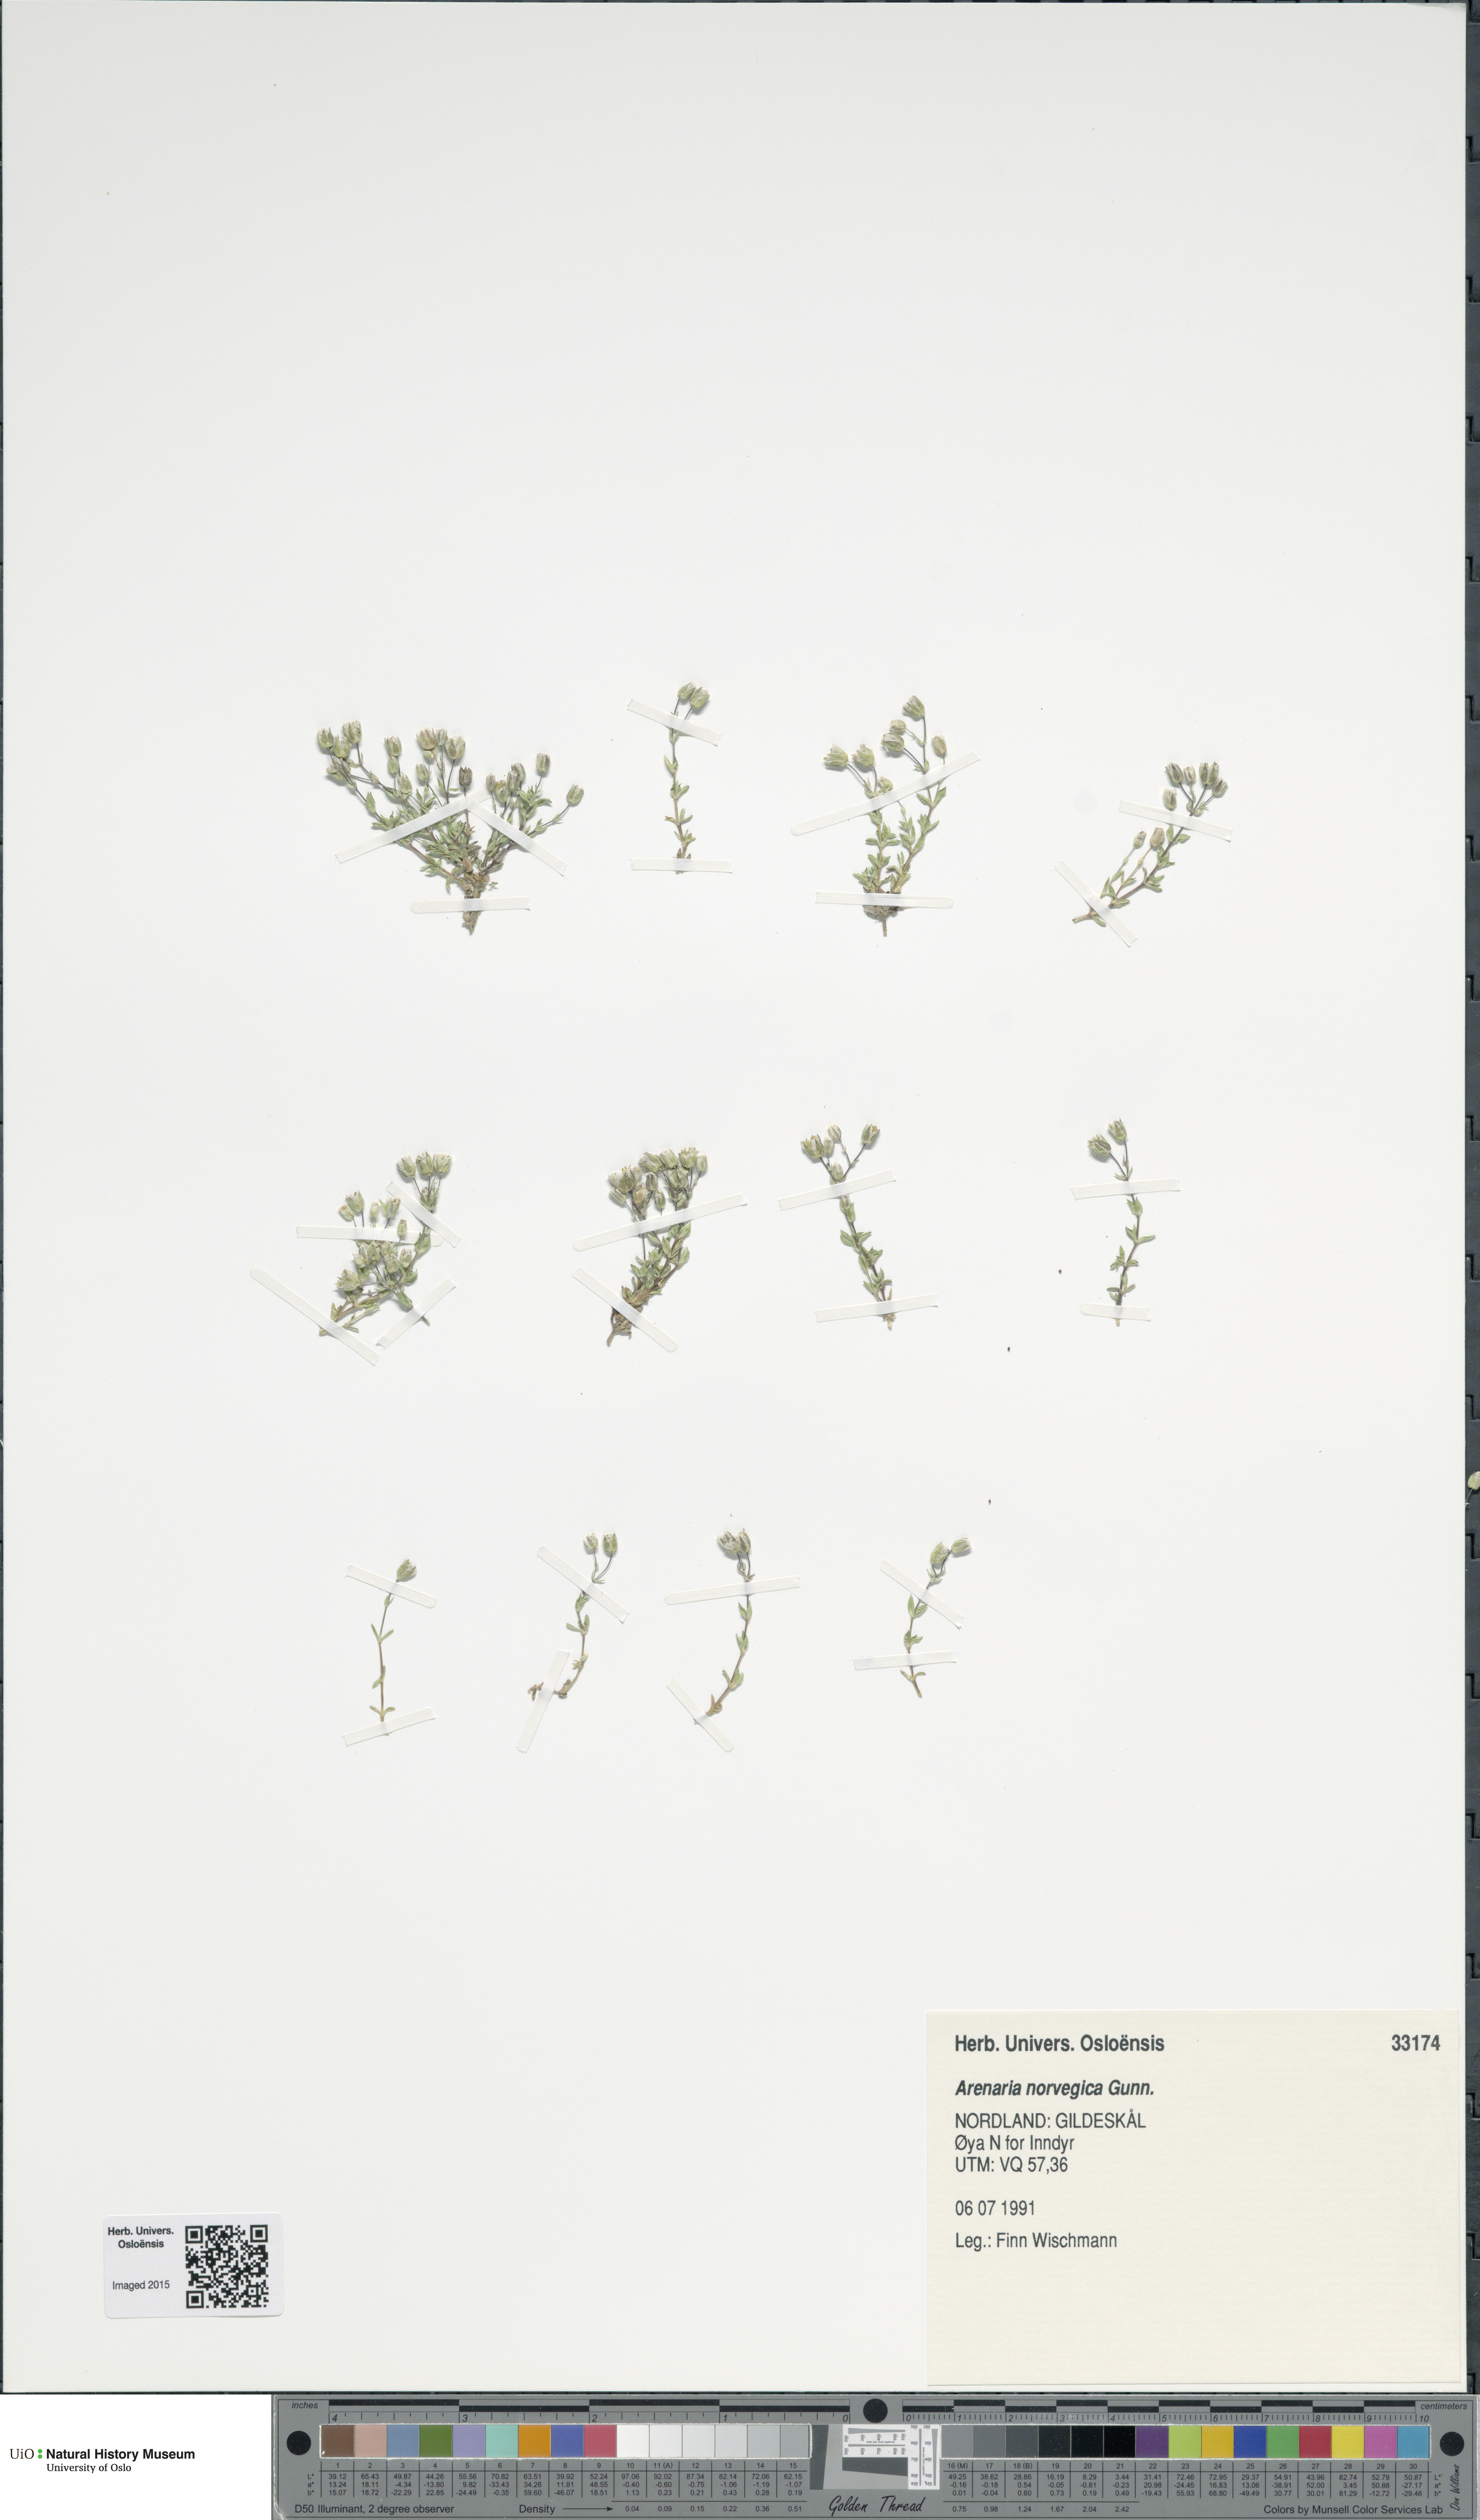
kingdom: Plantae
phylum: Tracheophyta
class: Magnoliopsida
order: Caryophyllales
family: Caryophyllaceae
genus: Arenaria
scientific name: Arenaria norvegica
